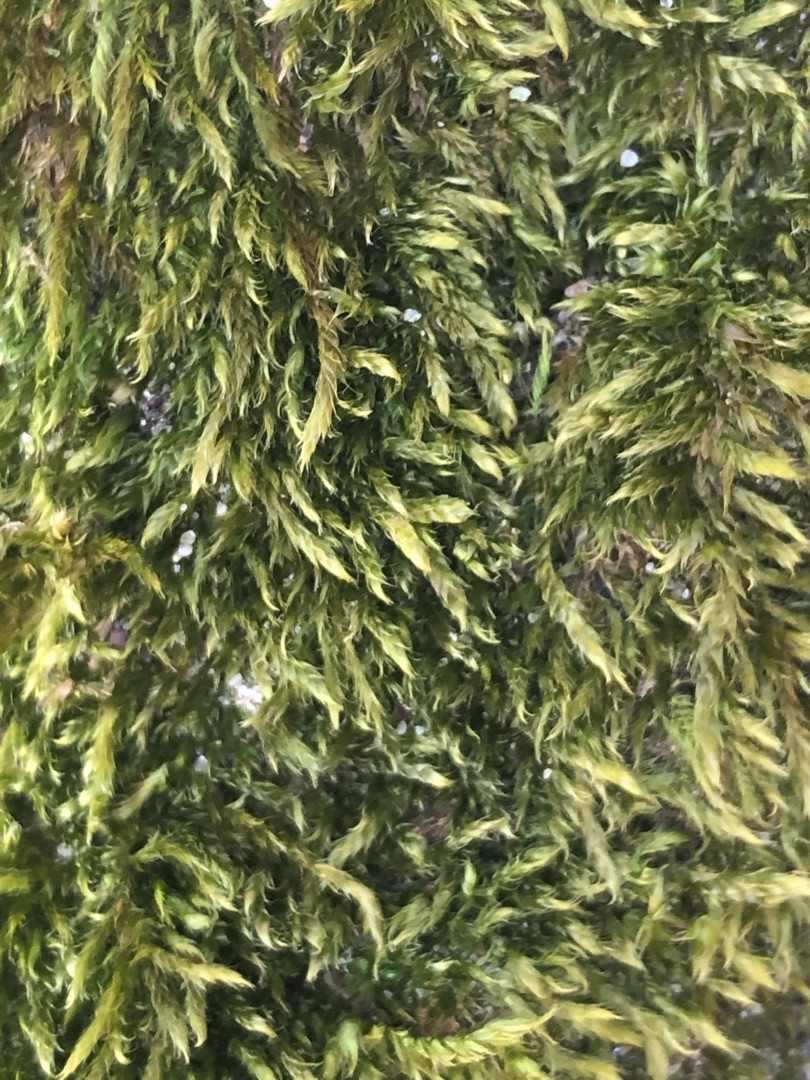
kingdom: Plantae
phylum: Bryophyta
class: Bryopsida
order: Hypnales
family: Hypnaceae
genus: Hypnum
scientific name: Hypnum cupressiforme
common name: Almindelig cypresmos
